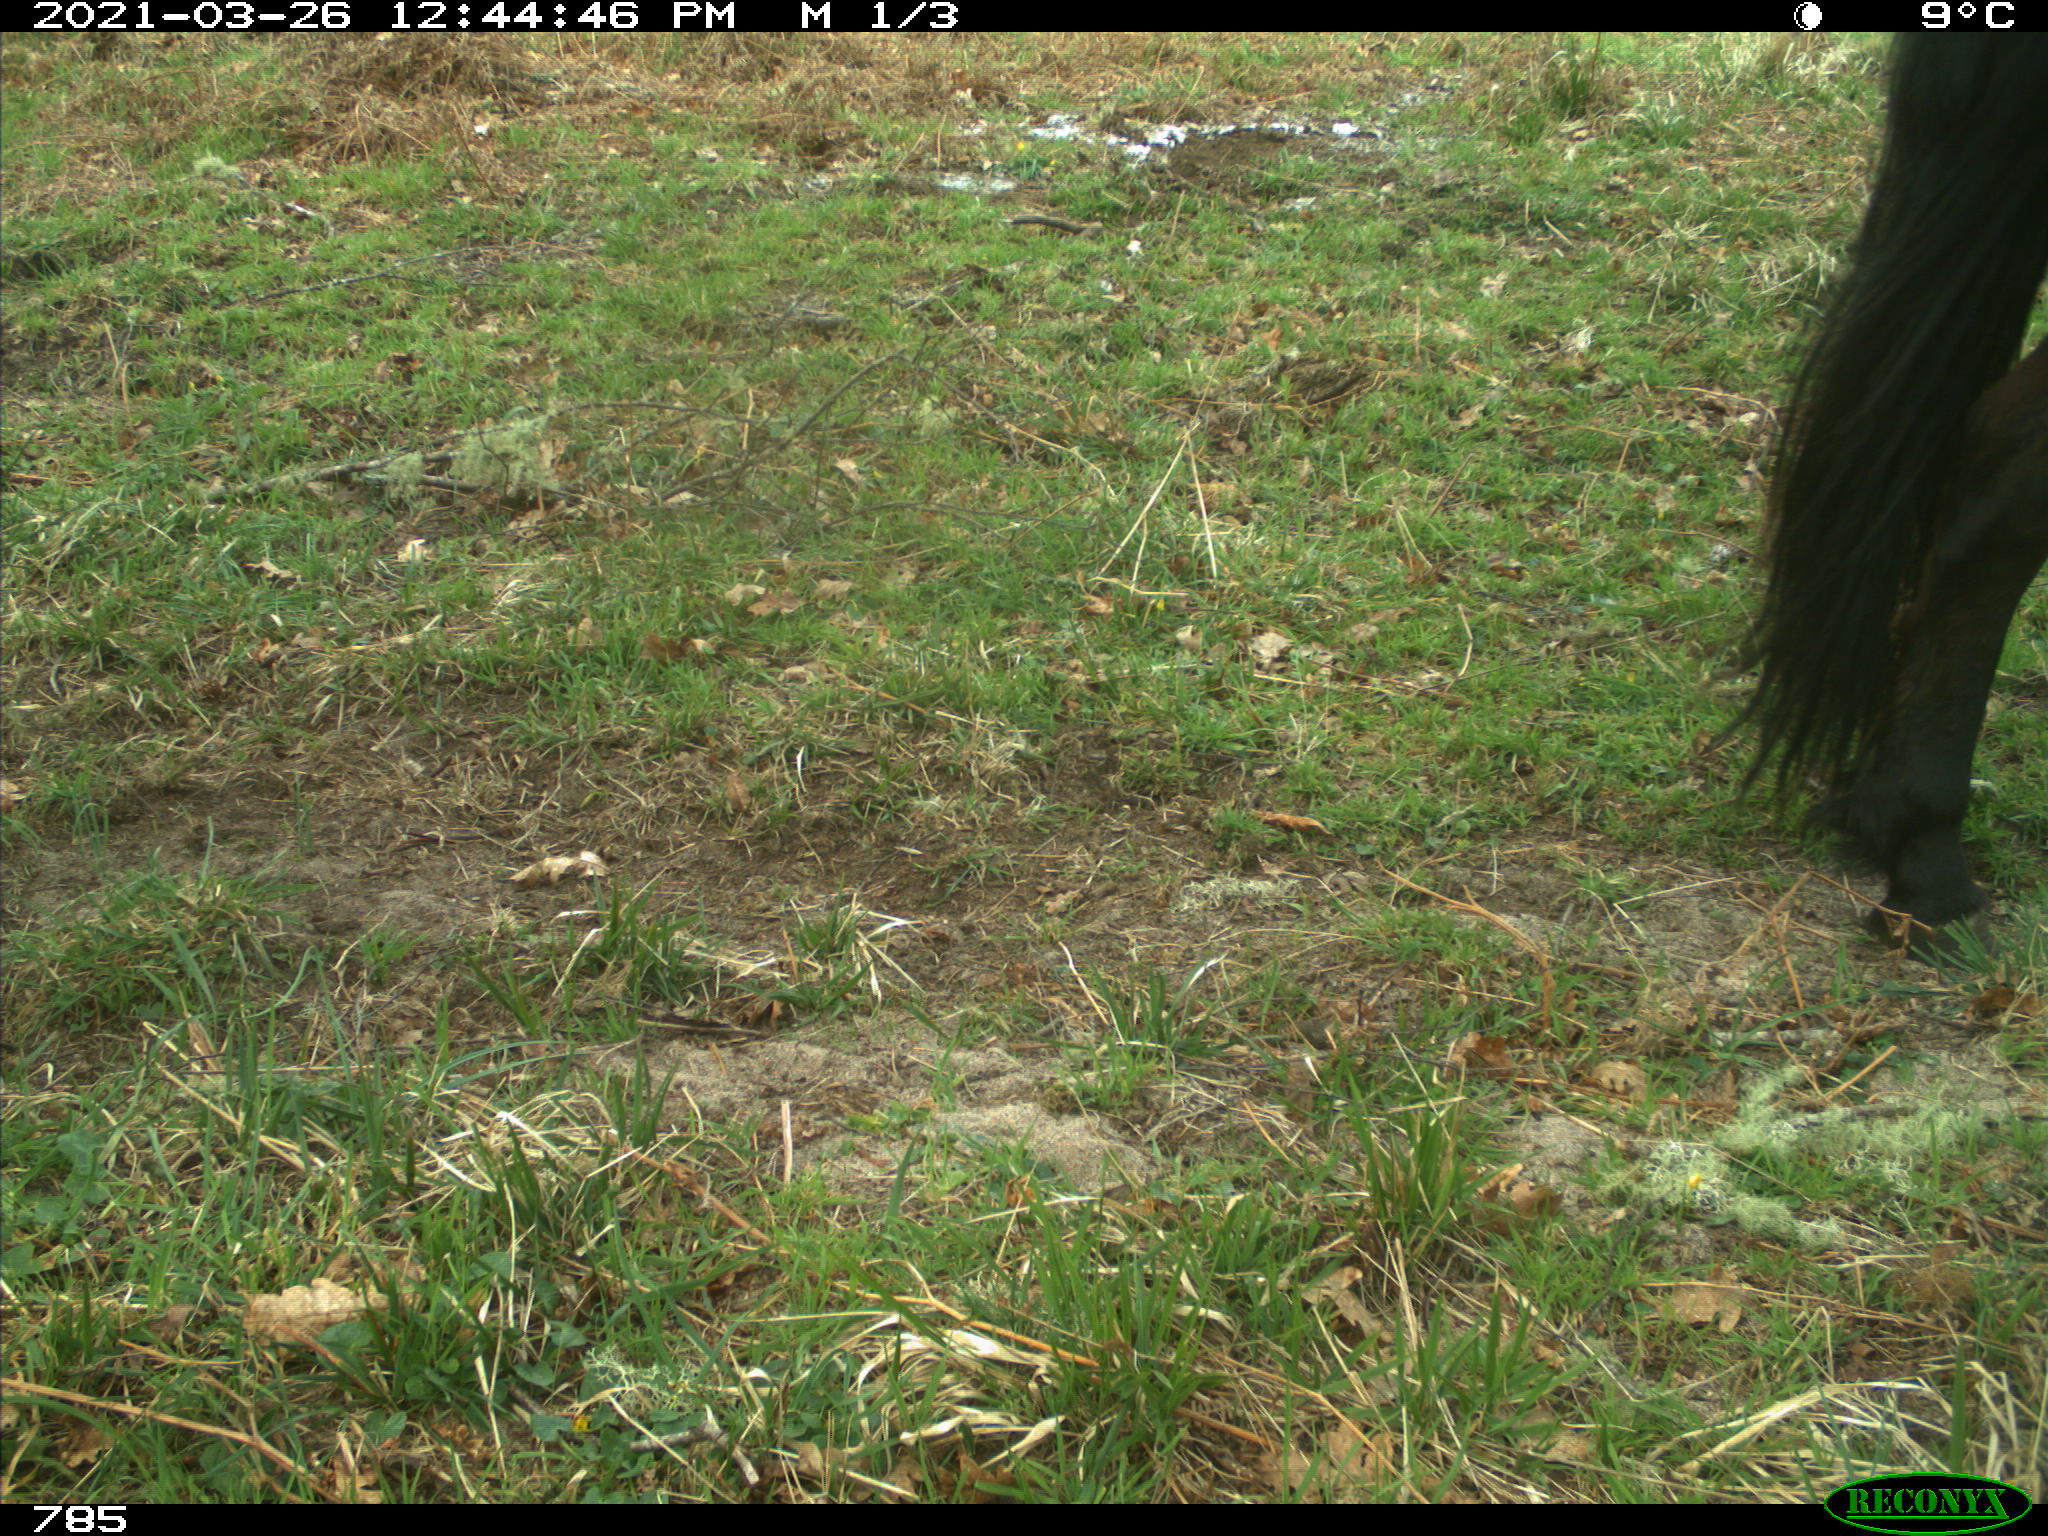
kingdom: Animalia
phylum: Chordata
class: Mammalia
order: Perissodactyla
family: Equidae
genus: Equus
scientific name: Equus caballus
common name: Horse
